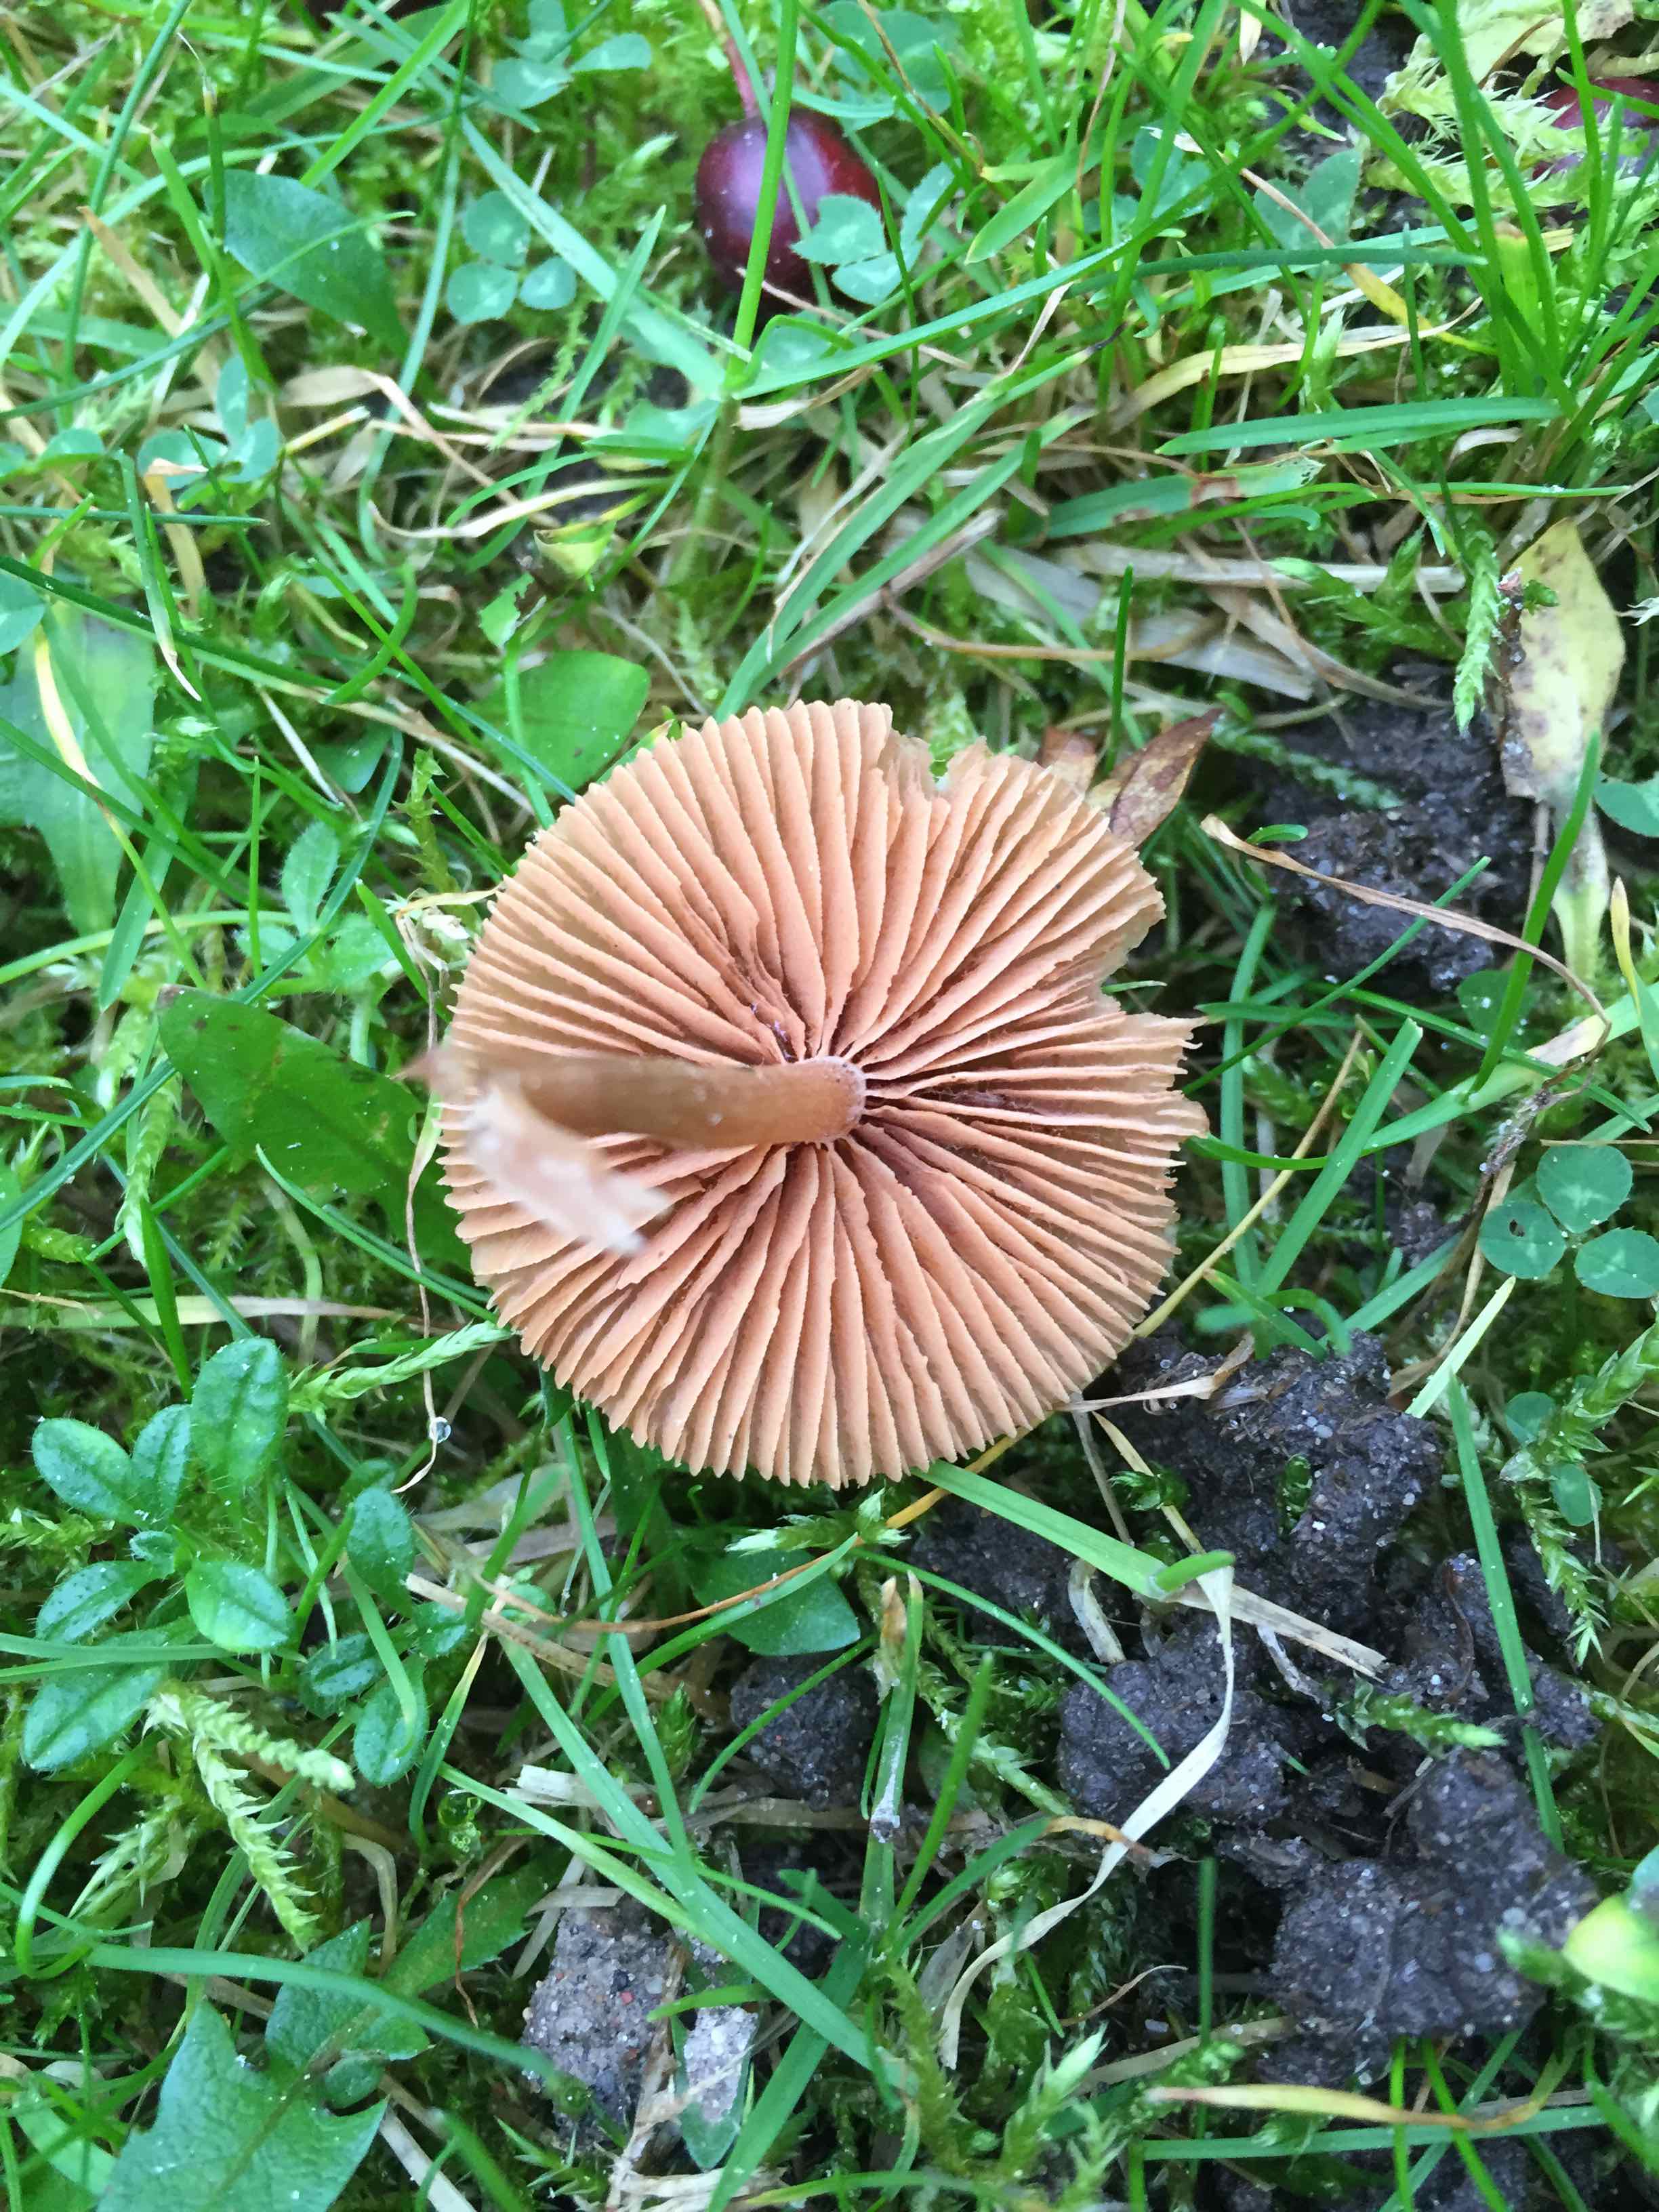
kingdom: Fungi
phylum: Basidiomycota
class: Agaricomycetes
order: Agaricales
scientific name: Agaricales
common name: champignonordenen
